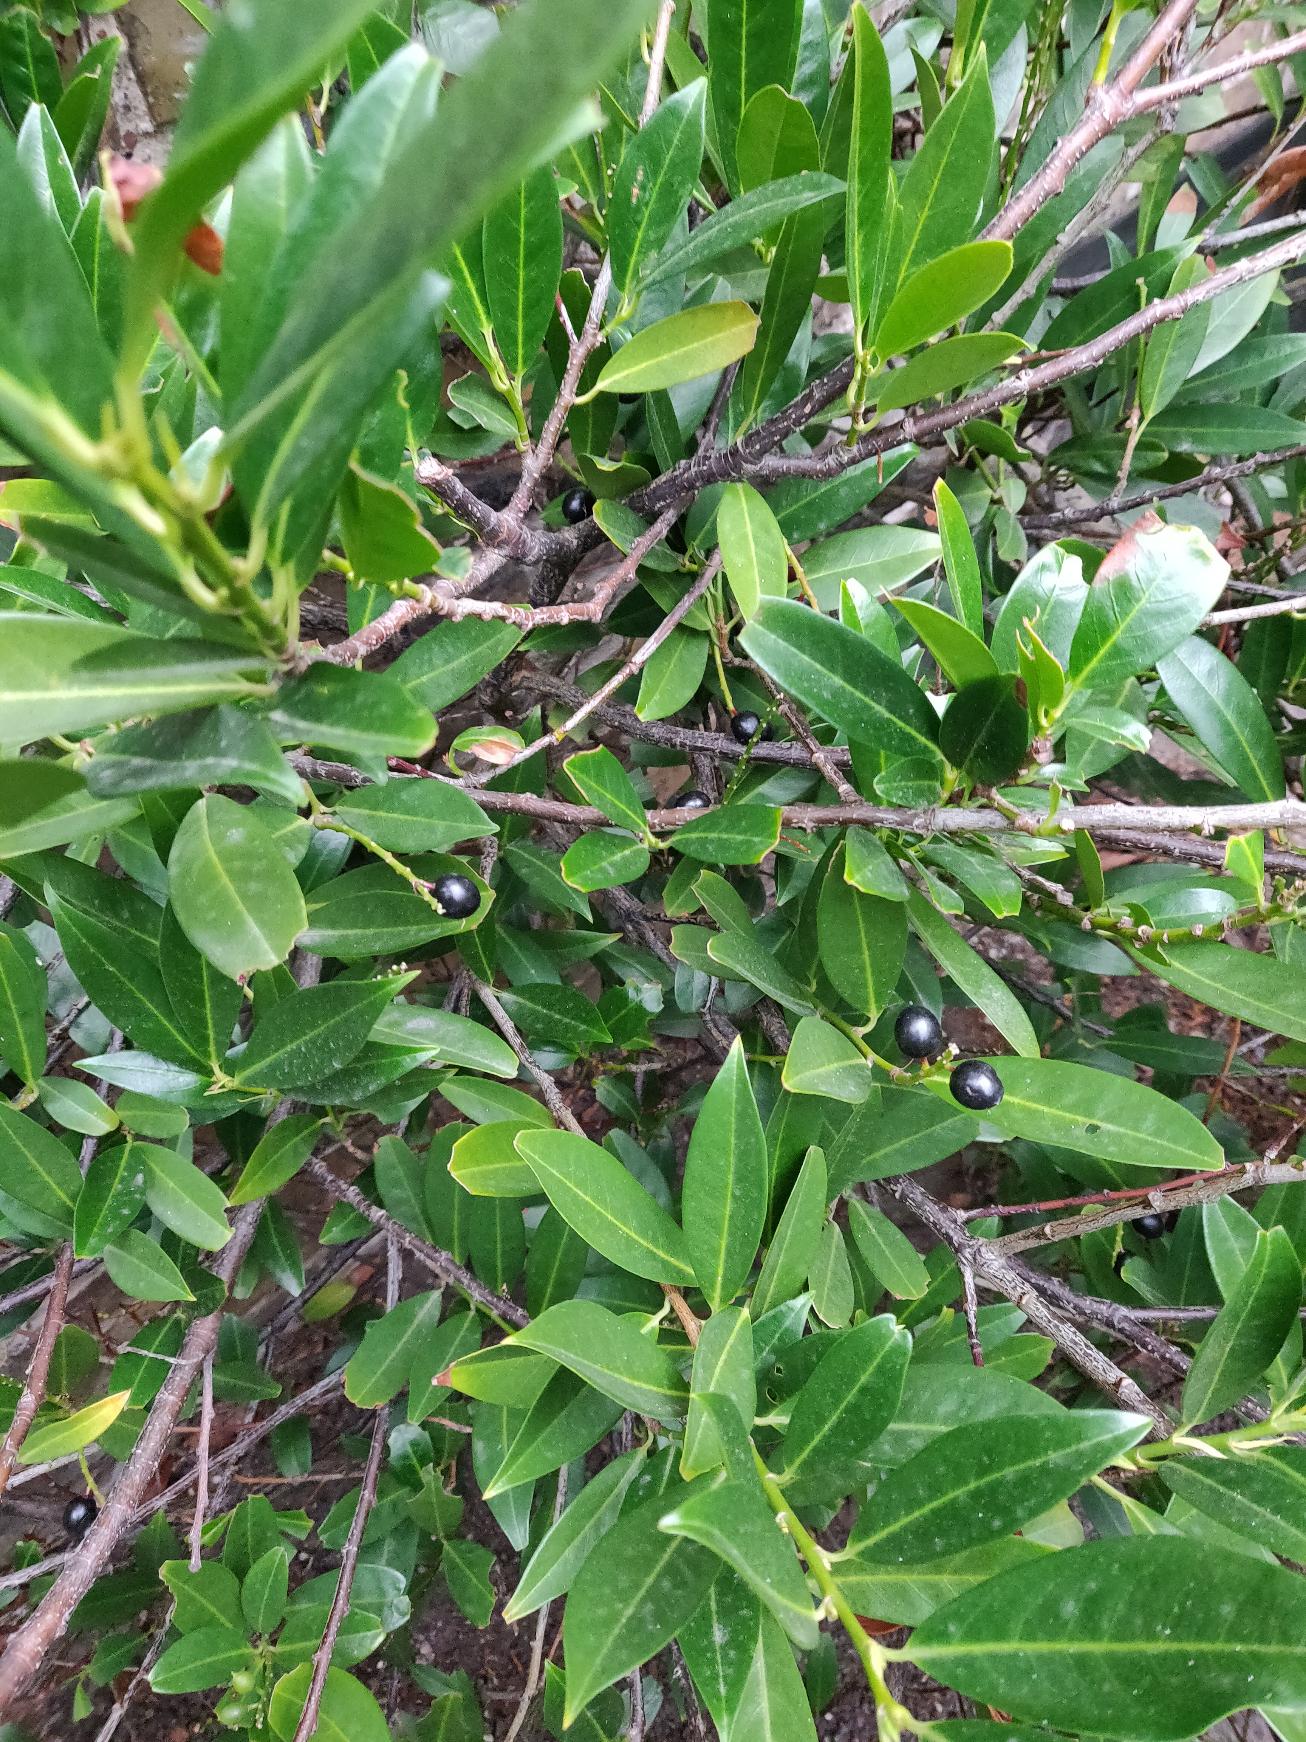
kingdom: Plantae
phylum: Tracheophyta
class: Magnoliopsida
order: Rosales
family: Rosaceae
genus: Prunus
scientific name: Prunus laurocerasus
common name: Laurbærkirsebær
